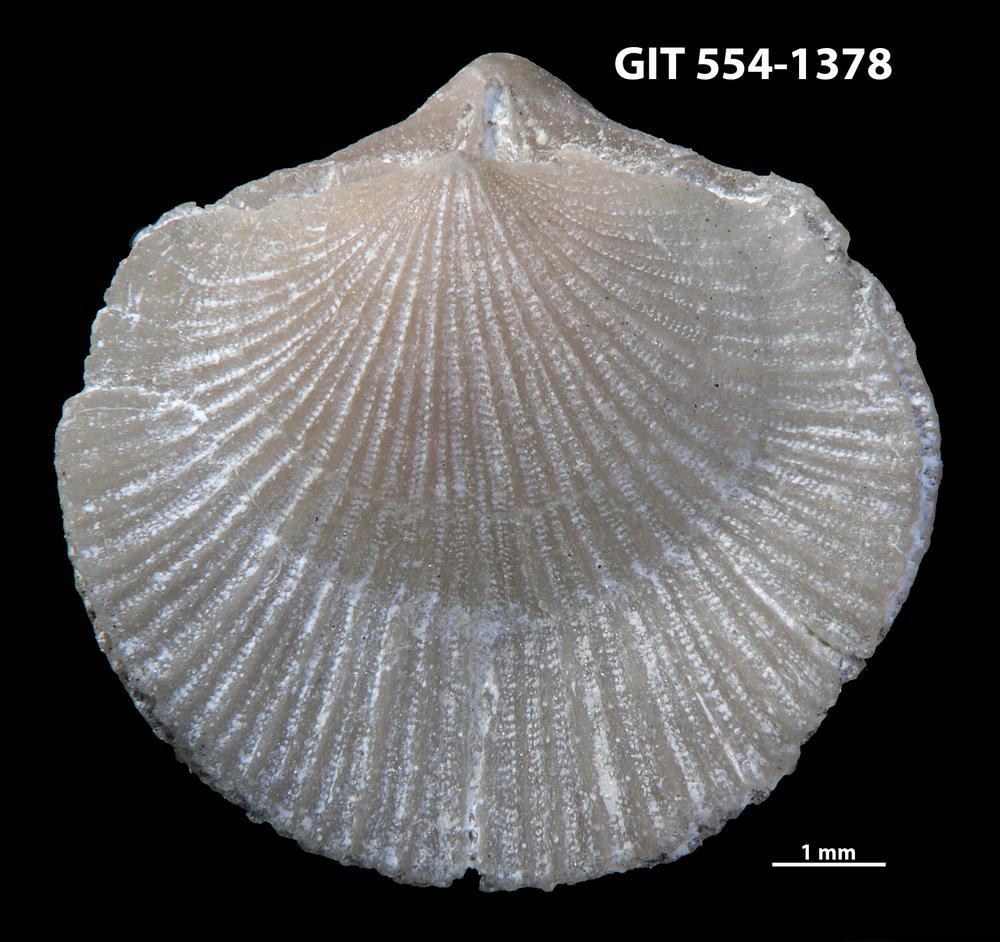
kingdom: Animalia
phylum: Brachiopoda
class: Rhynchonellata
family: Dalmanellidae
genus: Dalmanella
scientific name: Dalmanella cyclica
